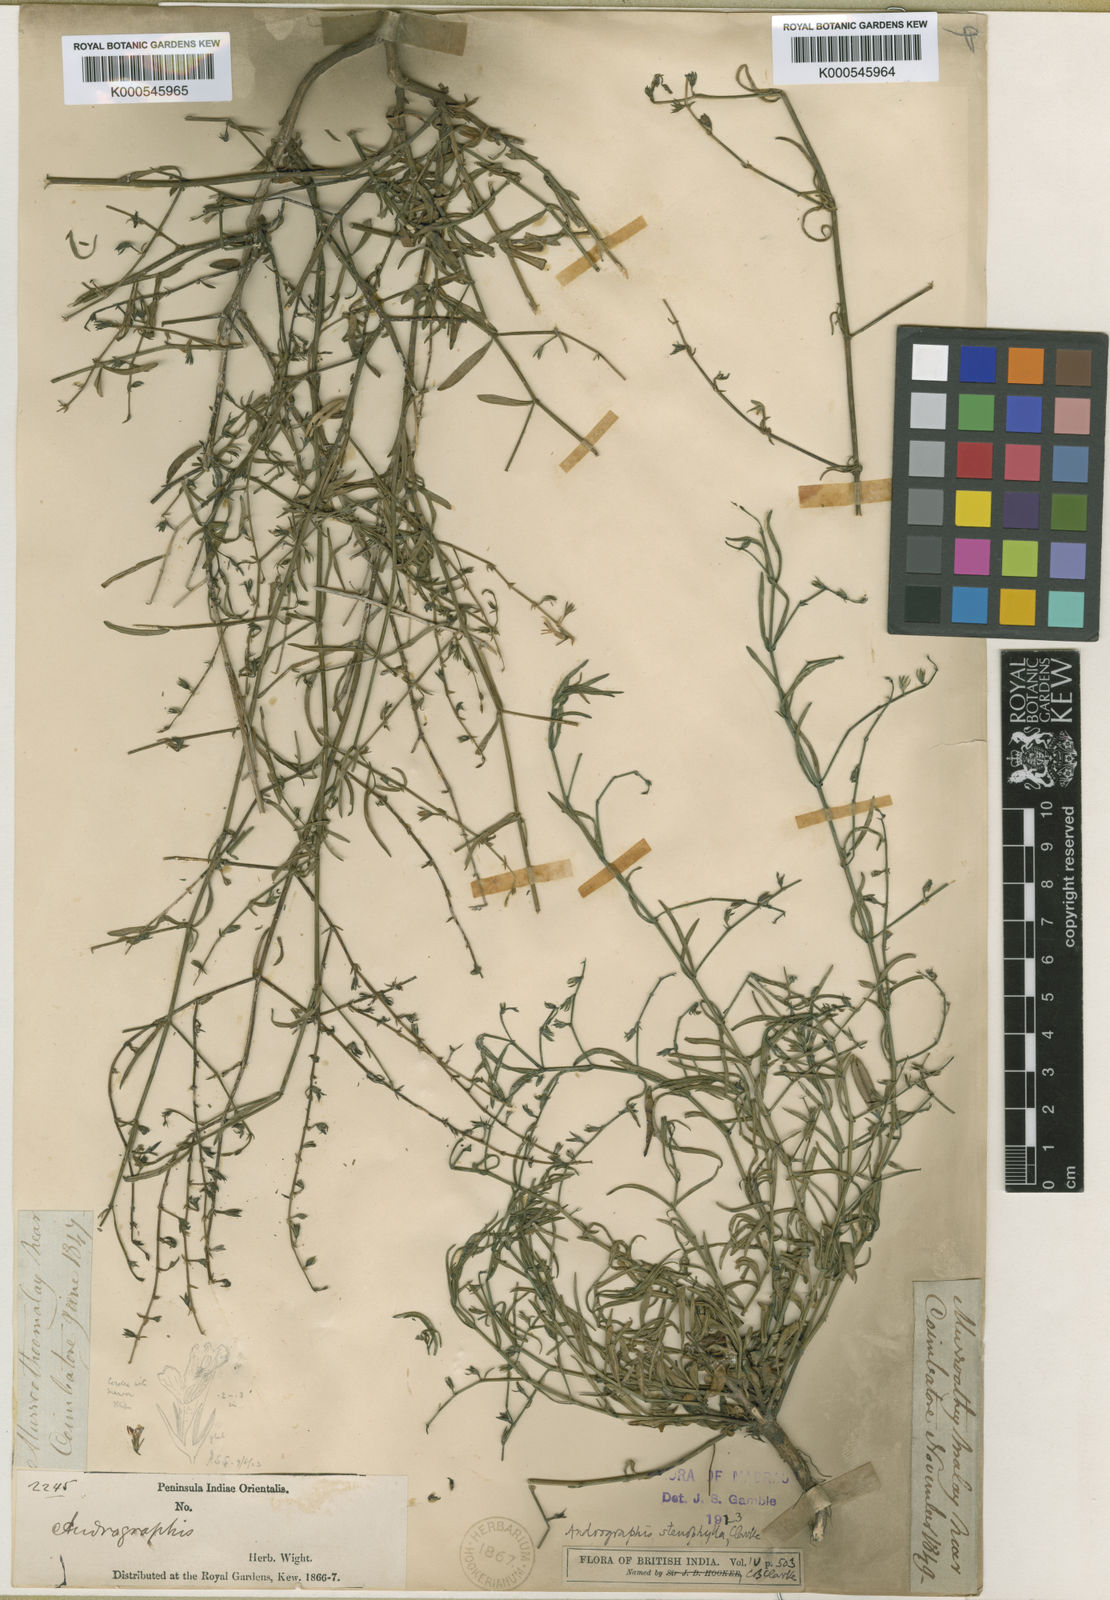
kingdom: Plantae
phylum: Tracheophyta
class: Magnoliopsida
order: Lamiales
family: Acanthaceae
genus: Andrographis
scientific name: Andrographis stenophylla
